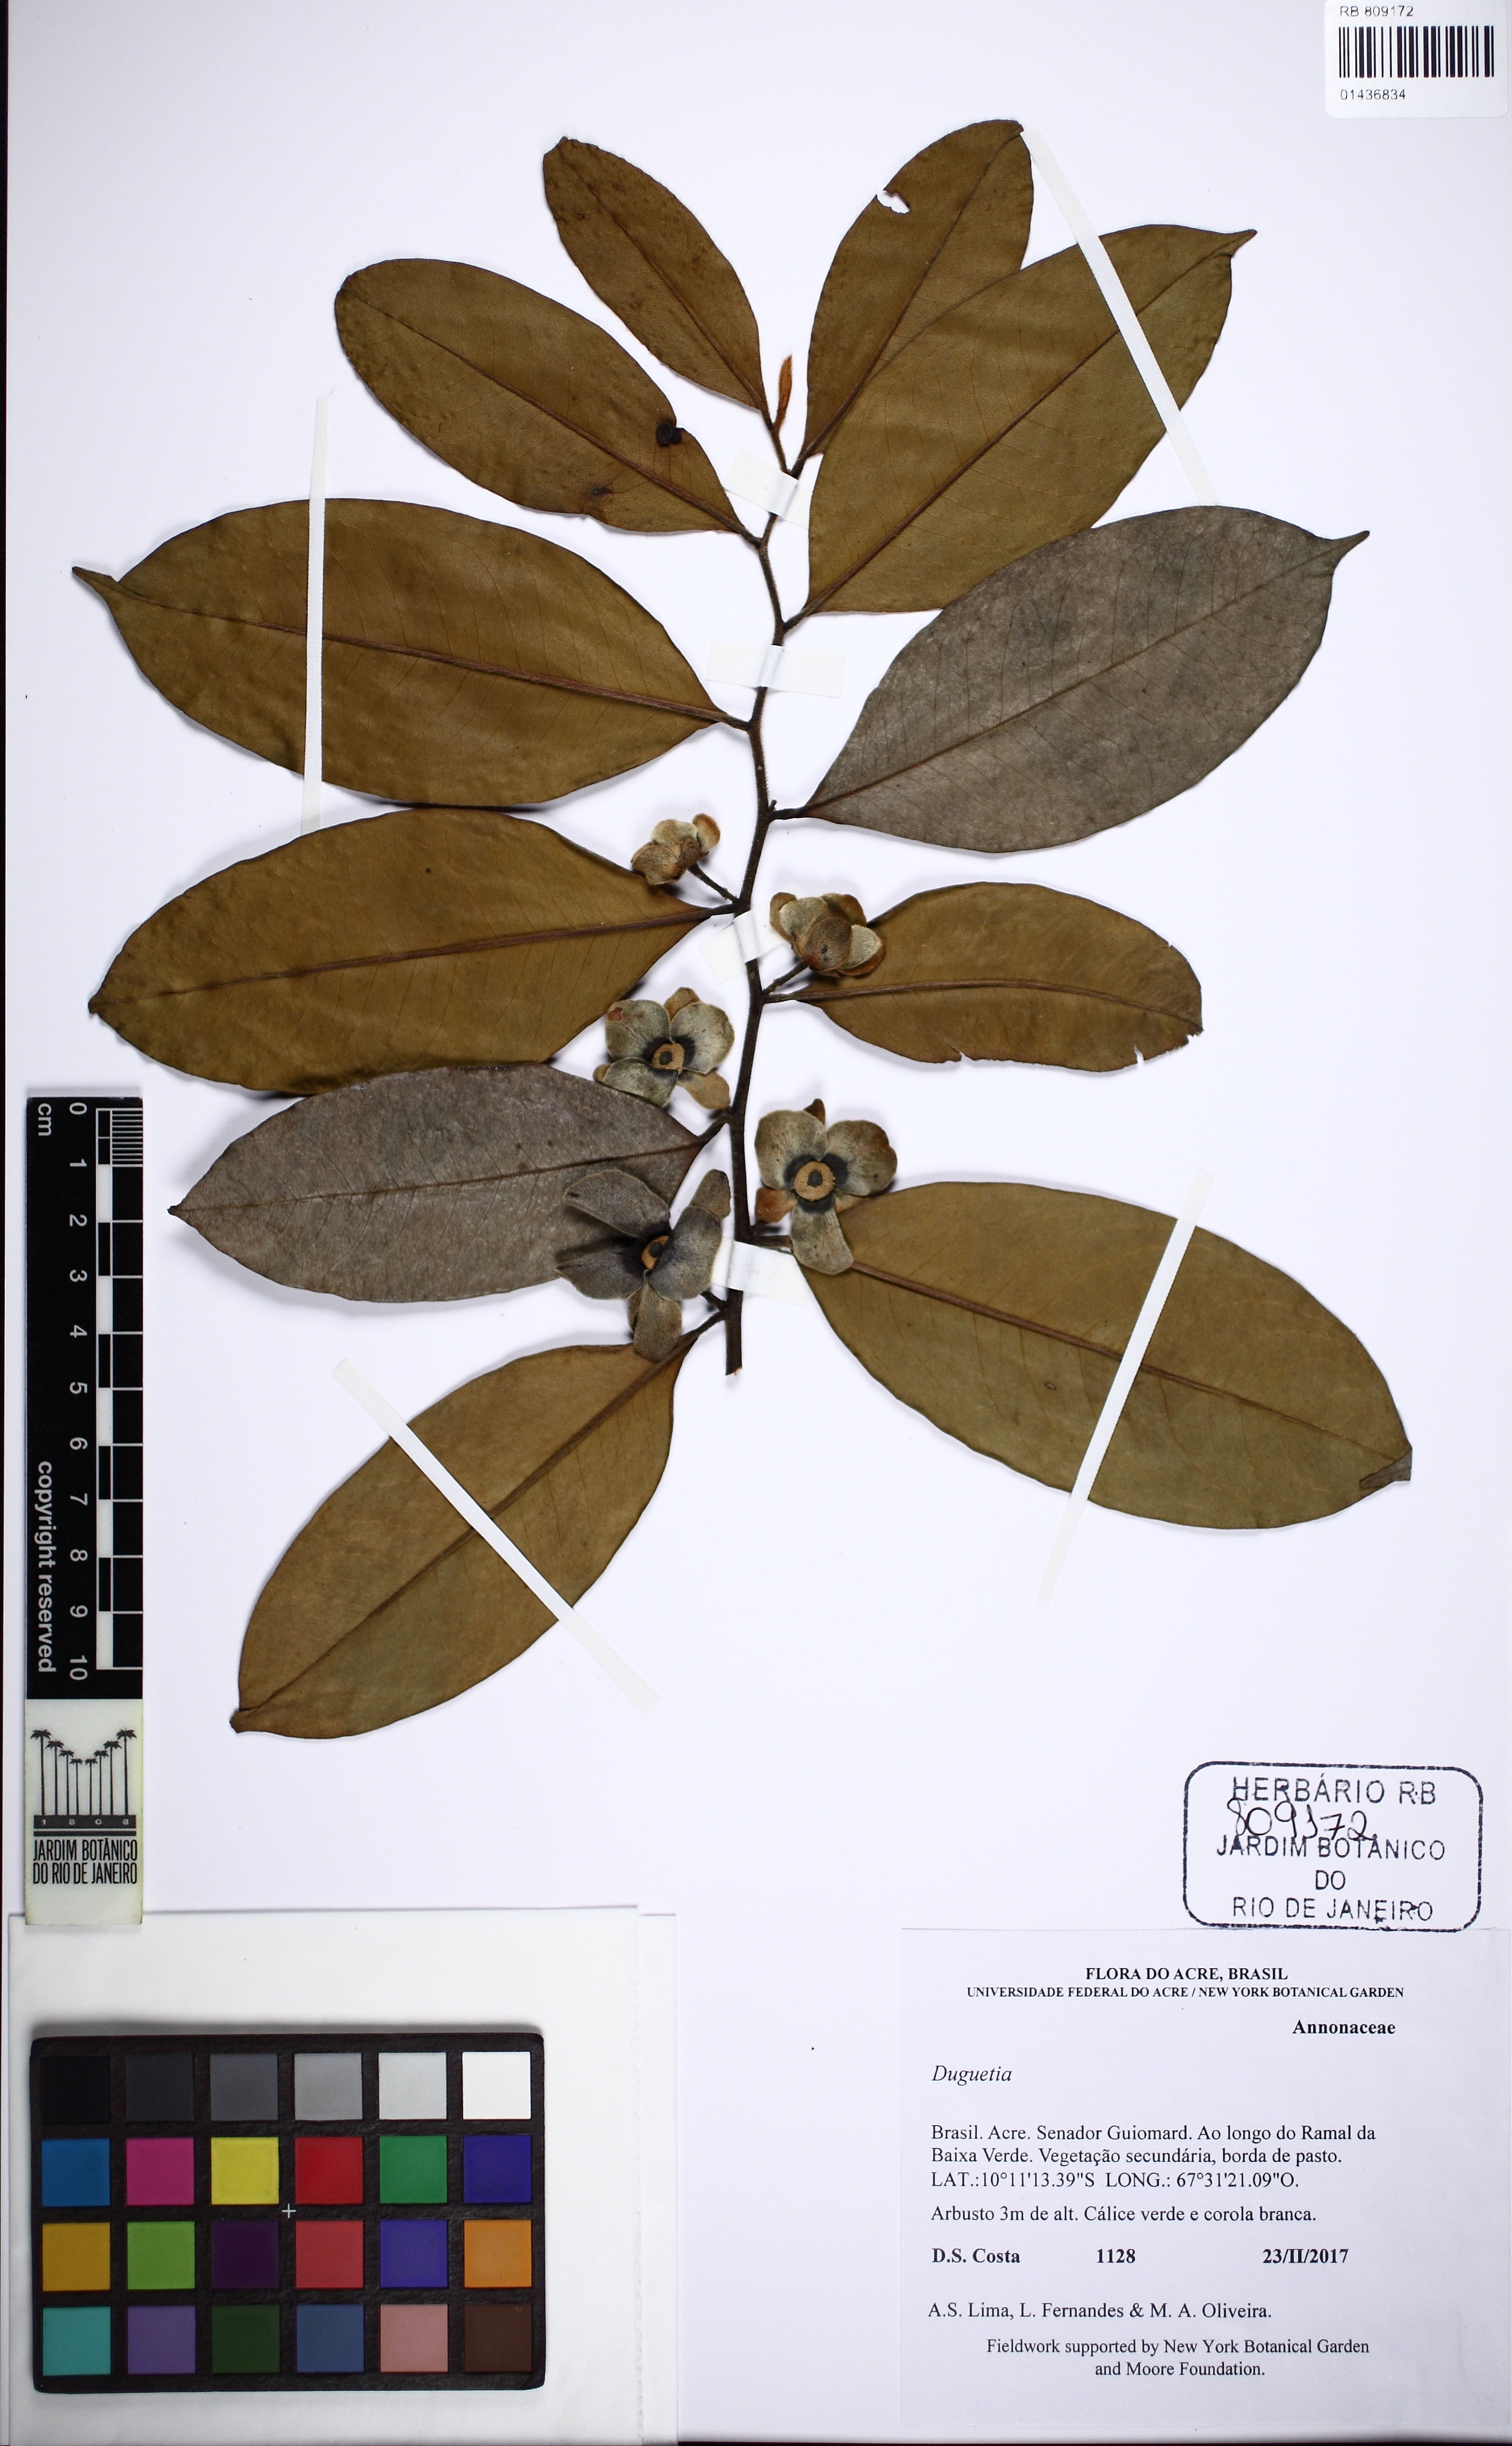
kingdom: Plantae
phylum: Tracheophyta
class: Magnoliopsida
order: Magnoliales
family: Annonaceae
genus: Duguetia
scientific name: Duguetia
